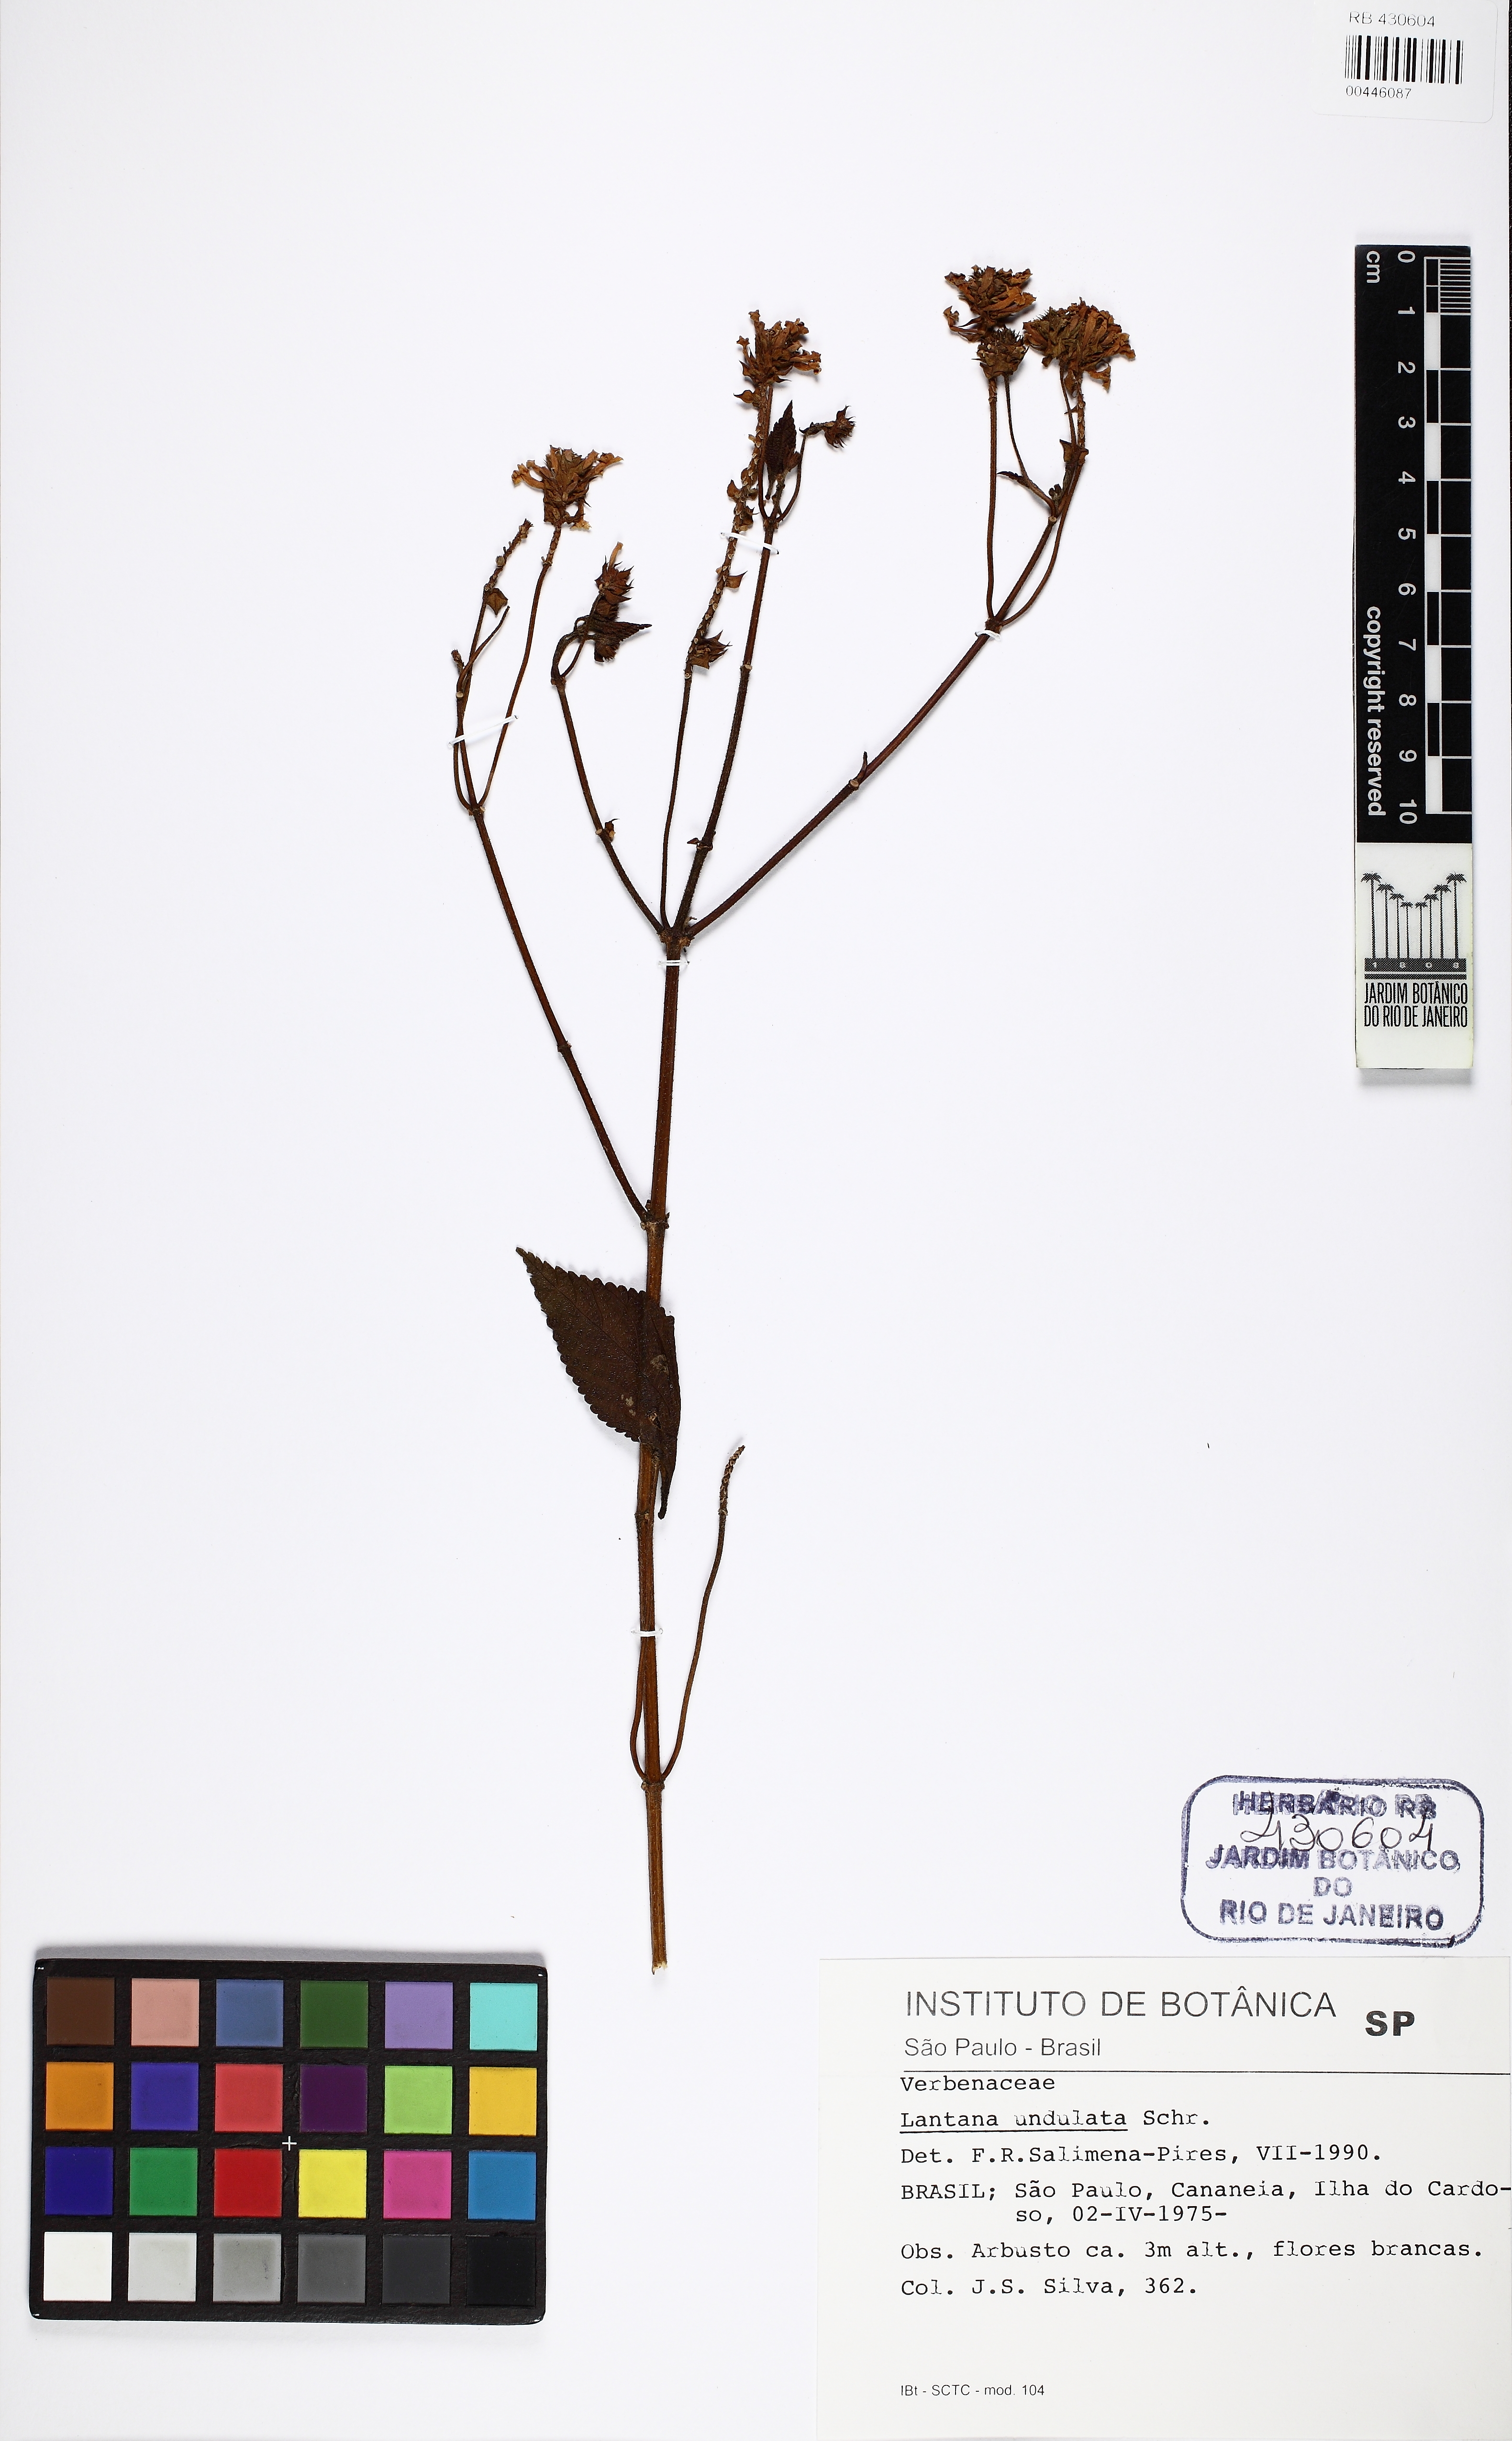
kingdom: Plantae
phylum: Tracheophyta
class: Magnoliopsida
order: Lamiales
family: Verbenaceae
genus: Lantana
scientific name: Lantana undulata
